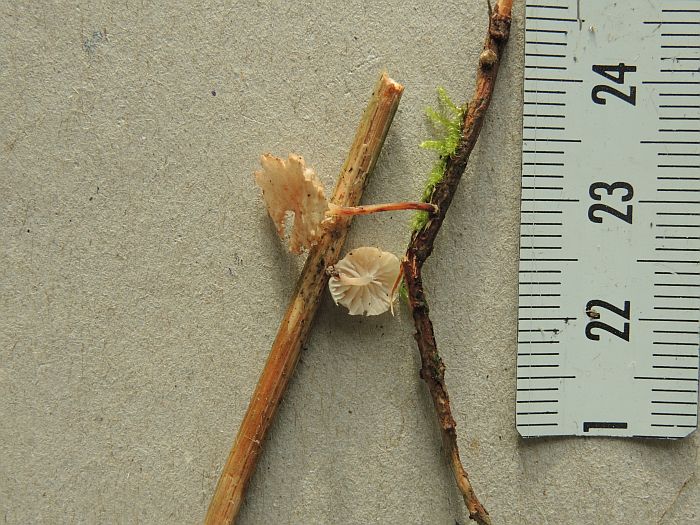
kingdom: Fungi
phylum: Basidiomycota
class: Agaricomycetes
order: Agaricales
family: Omphalotaceae
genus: Collybiopsis
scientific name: Collybiopsis ramealis
